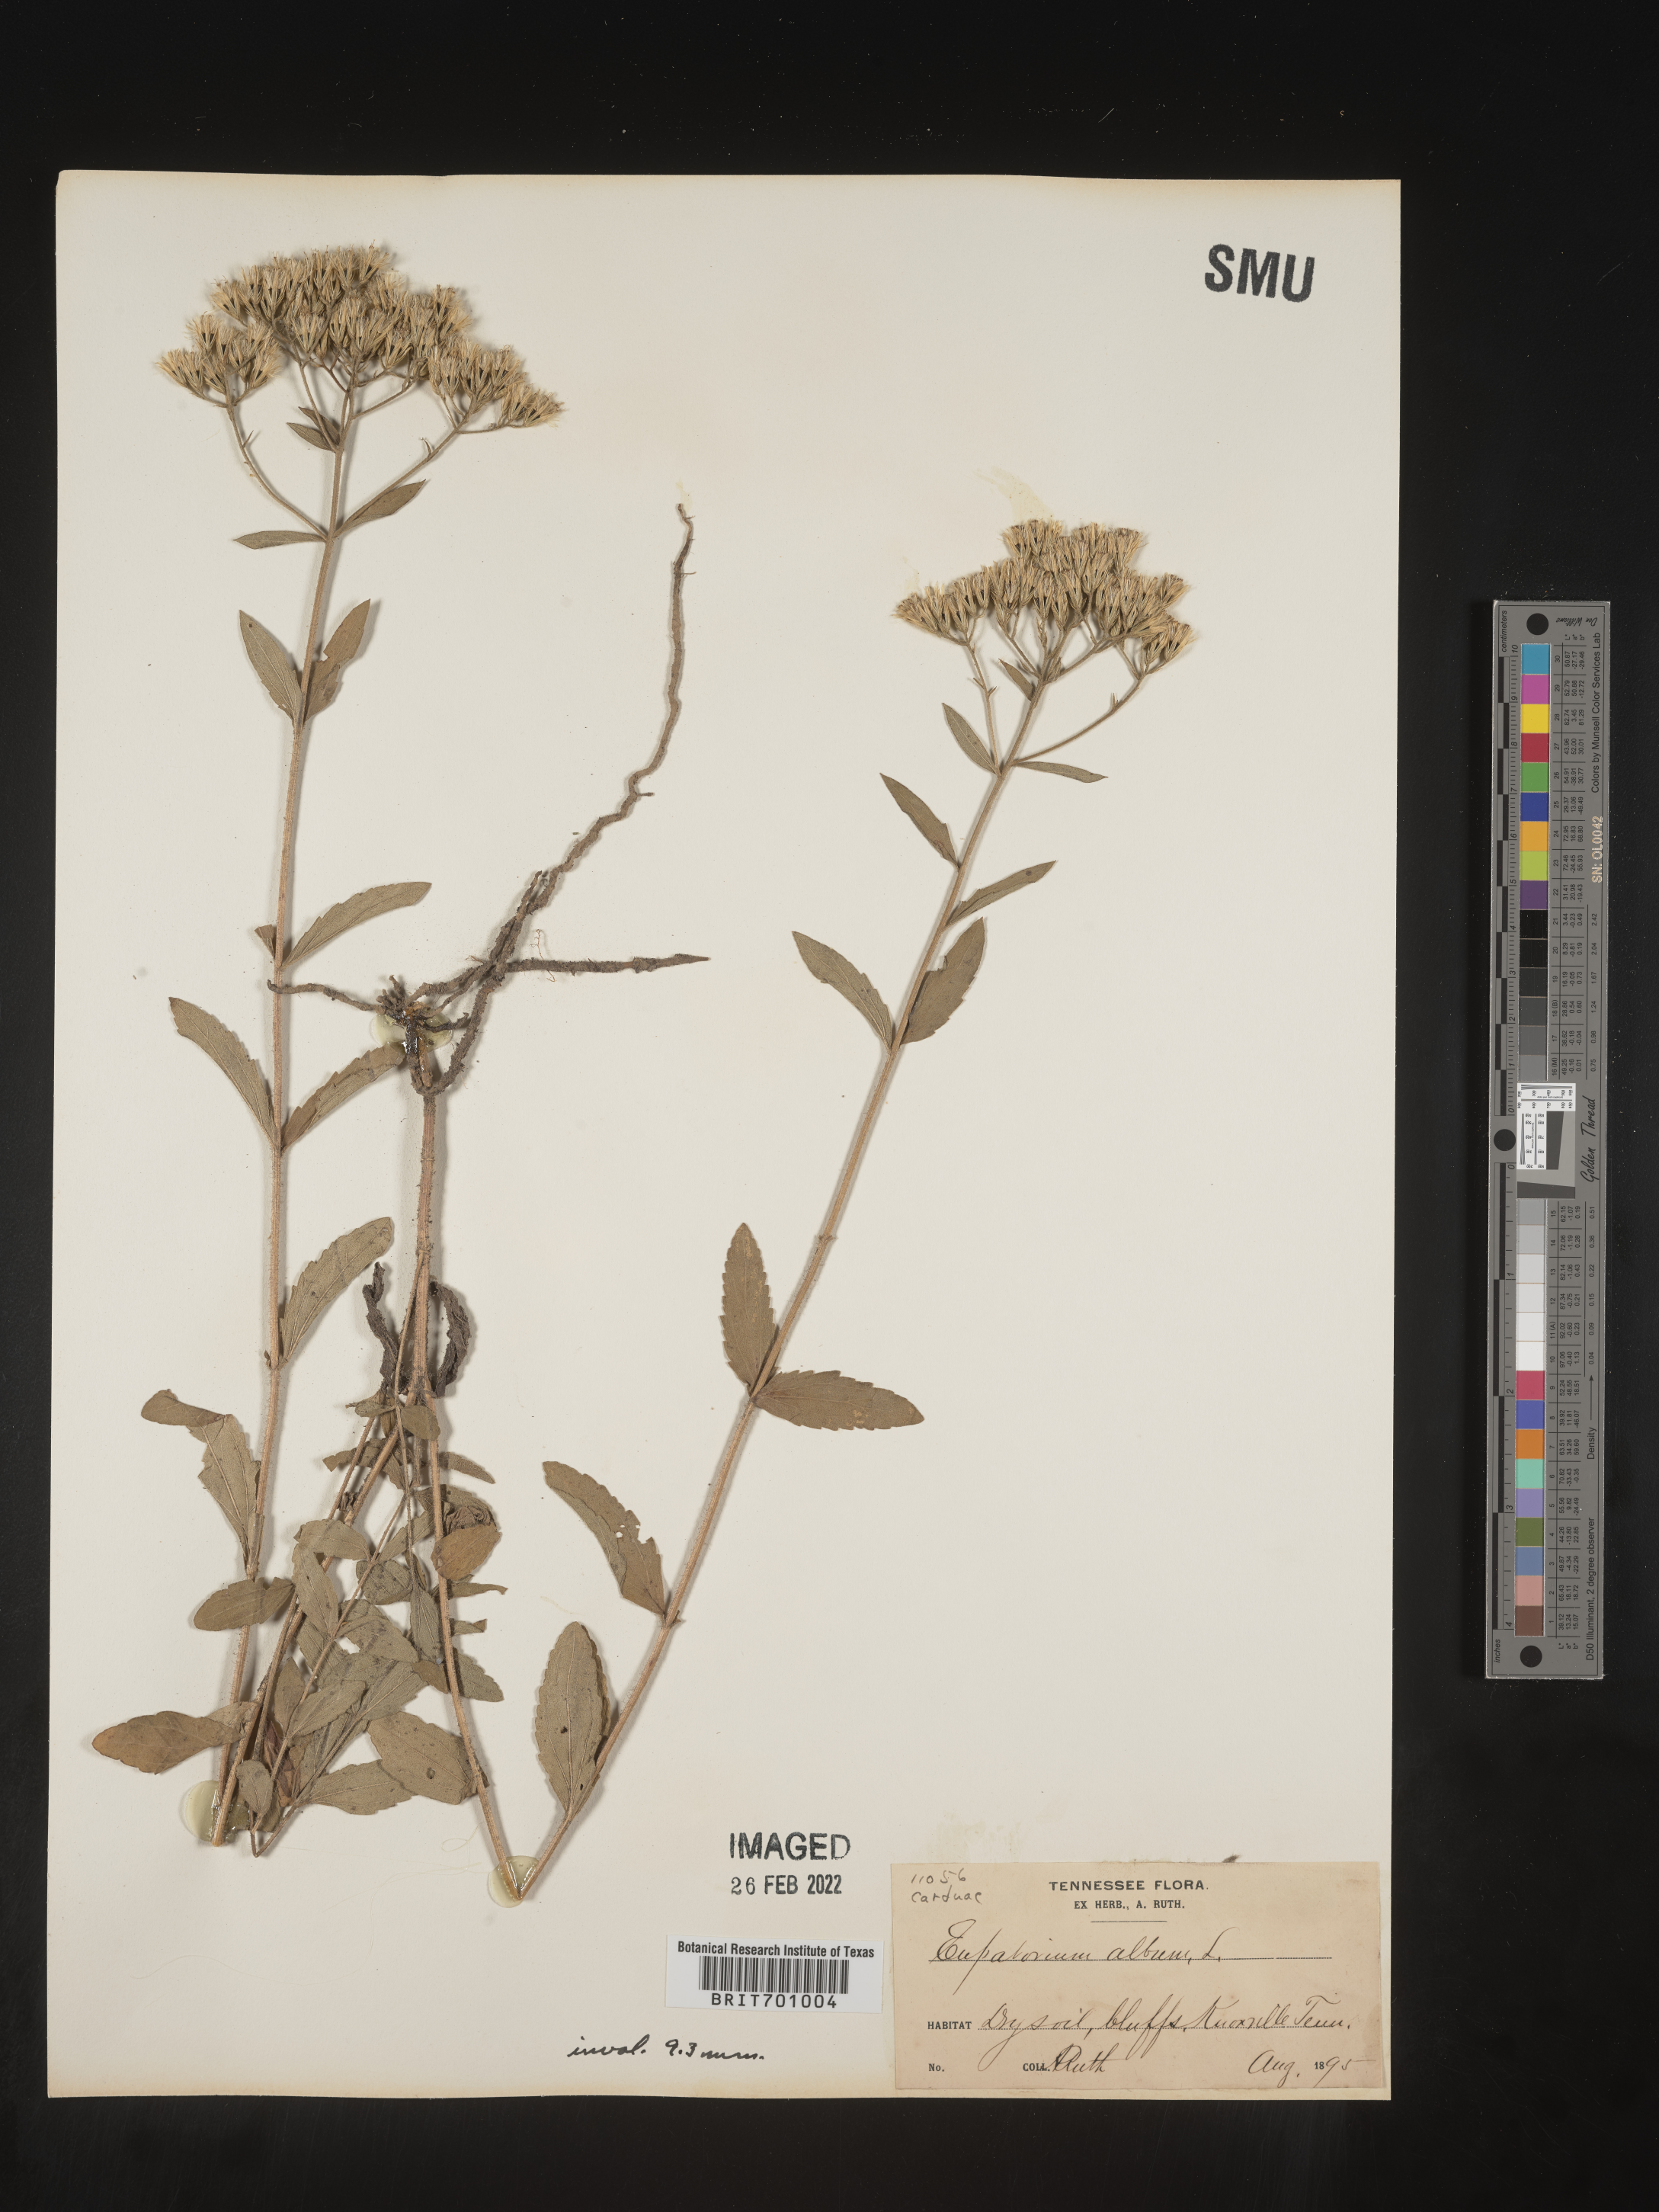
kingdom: Plantae
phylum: Tracheophyta
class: Magnoliopsida
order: Asterales
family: Asteraceae
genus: Eupatorium
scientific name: Eupatorium album
